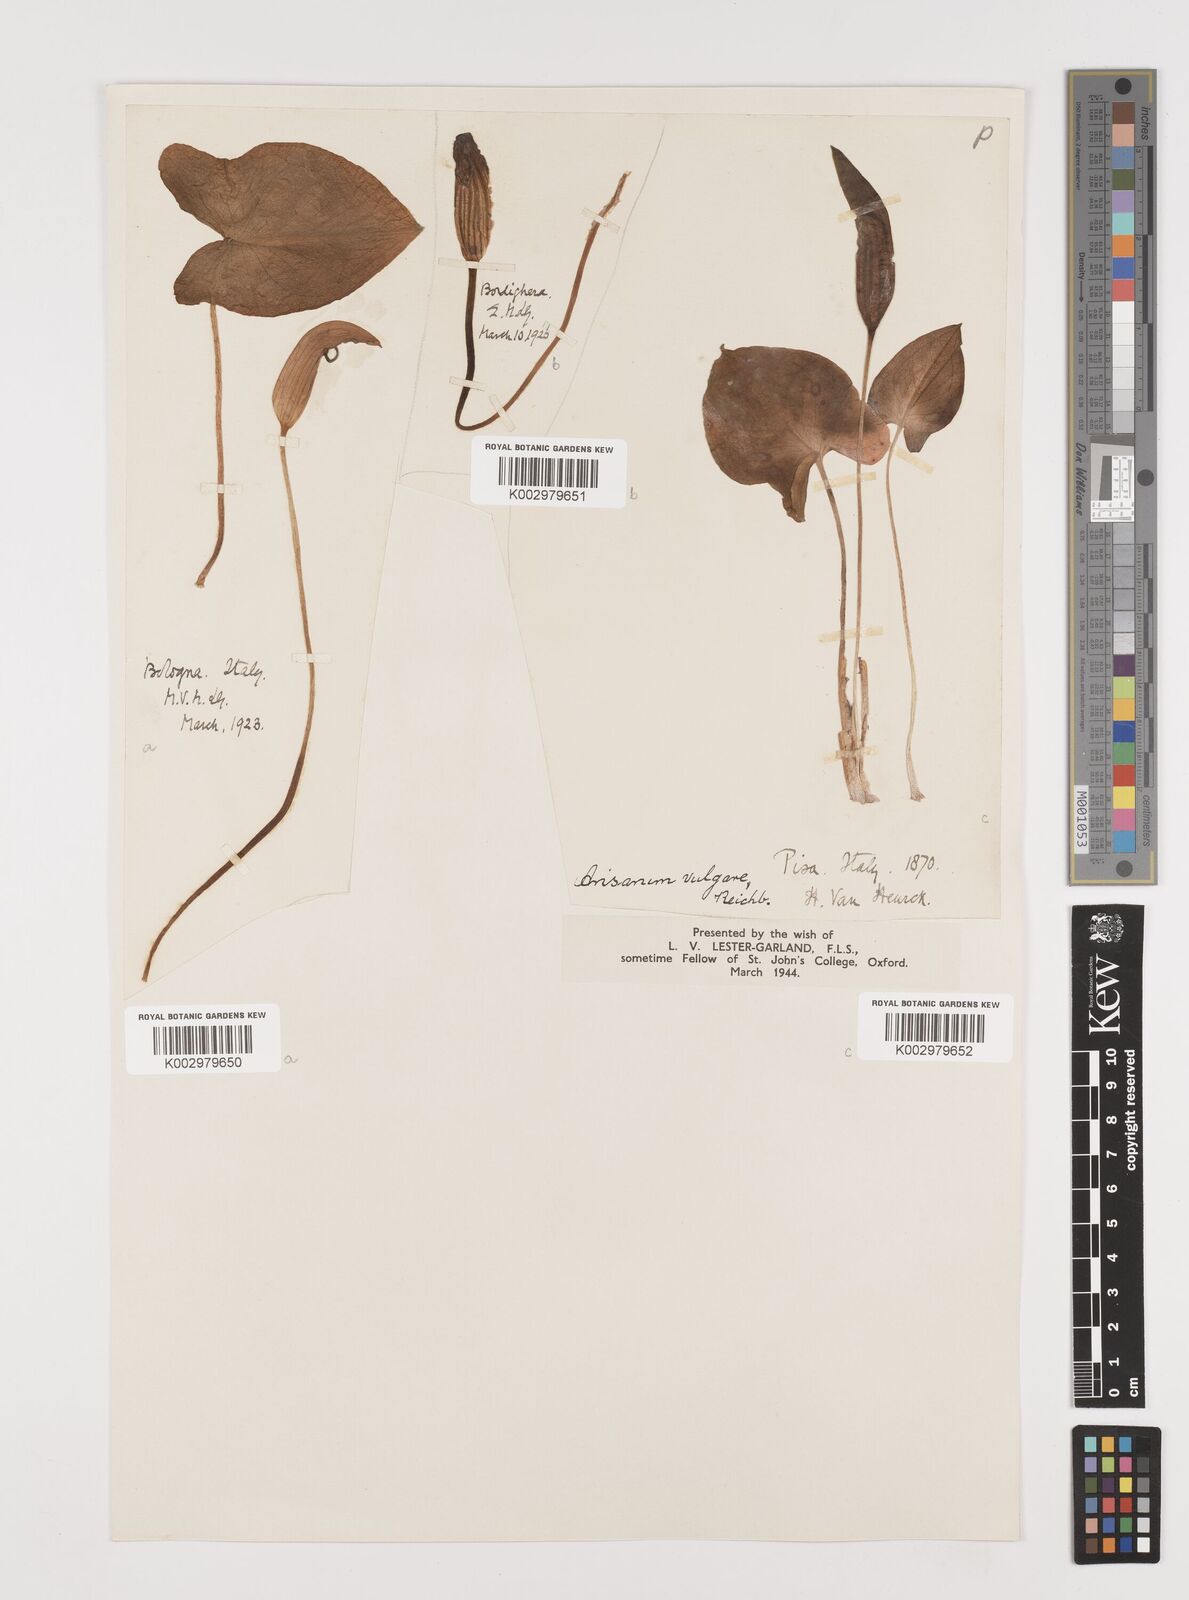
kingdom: Plantae
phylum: Tracheophyta
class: Liliopsida
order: Alismatales
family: Araceae
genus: Arisarum
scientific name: Arisarum vulgare
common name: Common arisarum
